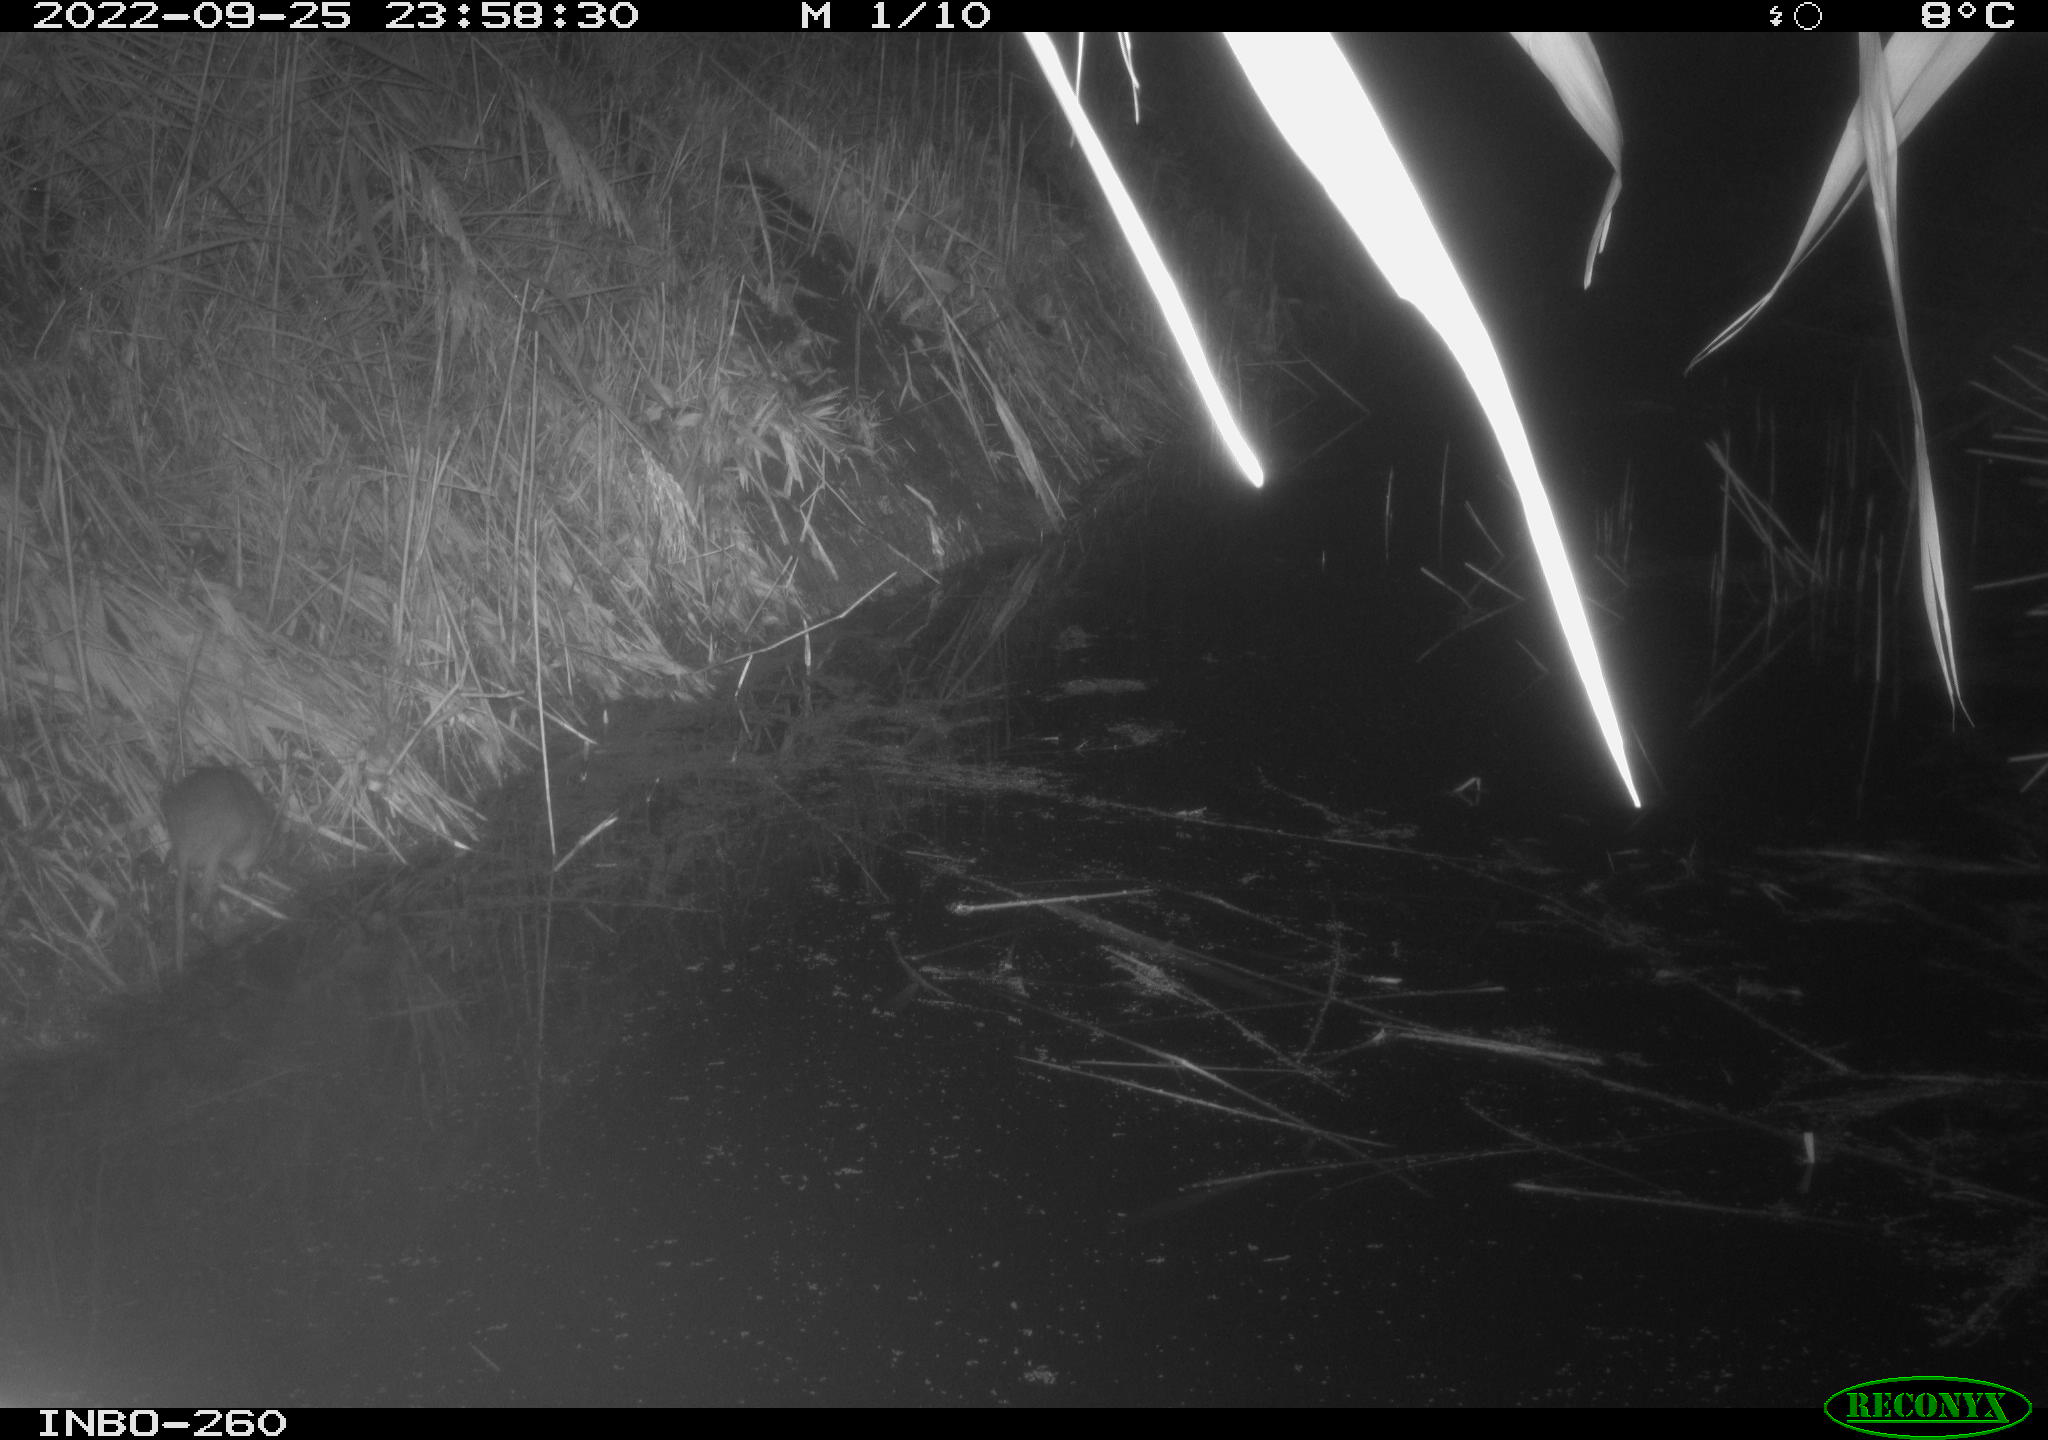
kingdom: Animalia
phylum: Chordata
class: Mammalia
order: Rodentia
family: Muridae
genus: Rattus
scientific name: Rattus norvegicus
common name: Brown rat
